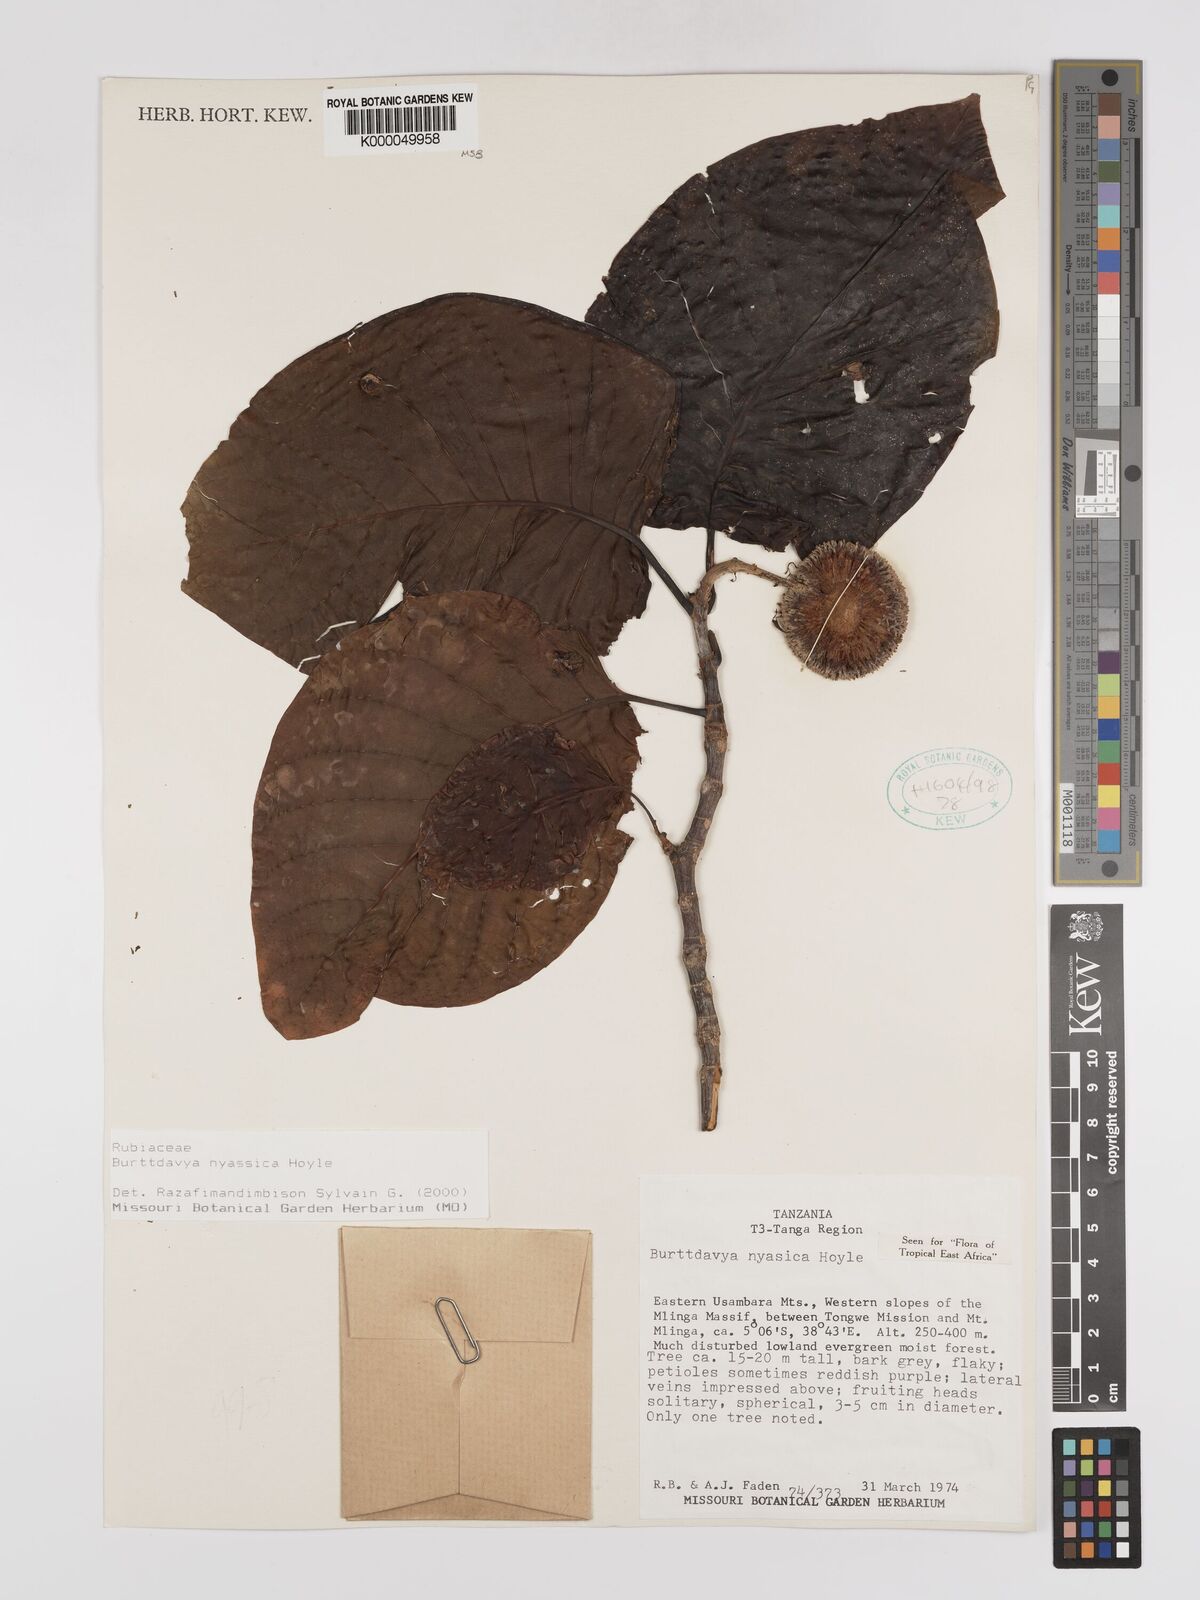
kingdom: Plantae
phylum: Tracheophyta
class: Magnoliopsida
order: Gentianales
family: Rubiaceae
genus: Nauclea
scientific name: Nauclea
